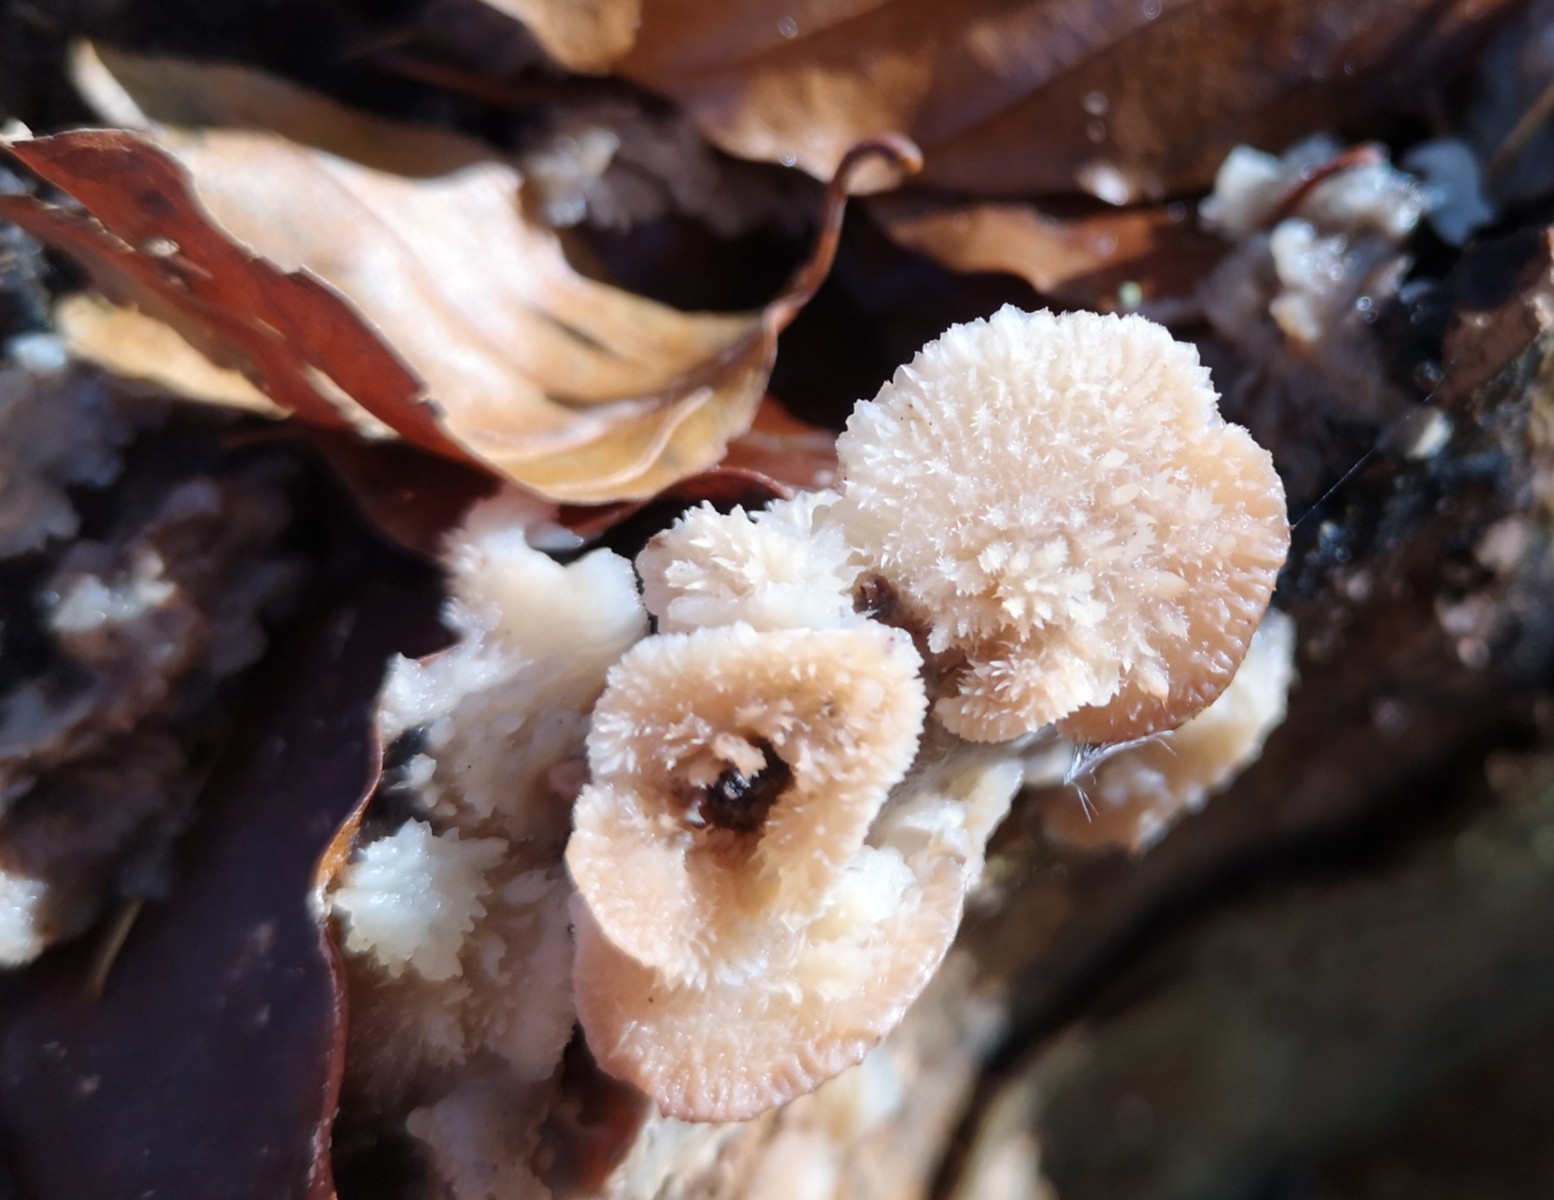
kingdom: Fungi
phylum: Basidiomycota
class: Agaricomycetes
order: Polyporales
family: Meruliaceae
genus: Phlebia
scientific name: Phlebia tremellosa
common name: bævrende åresvamp
